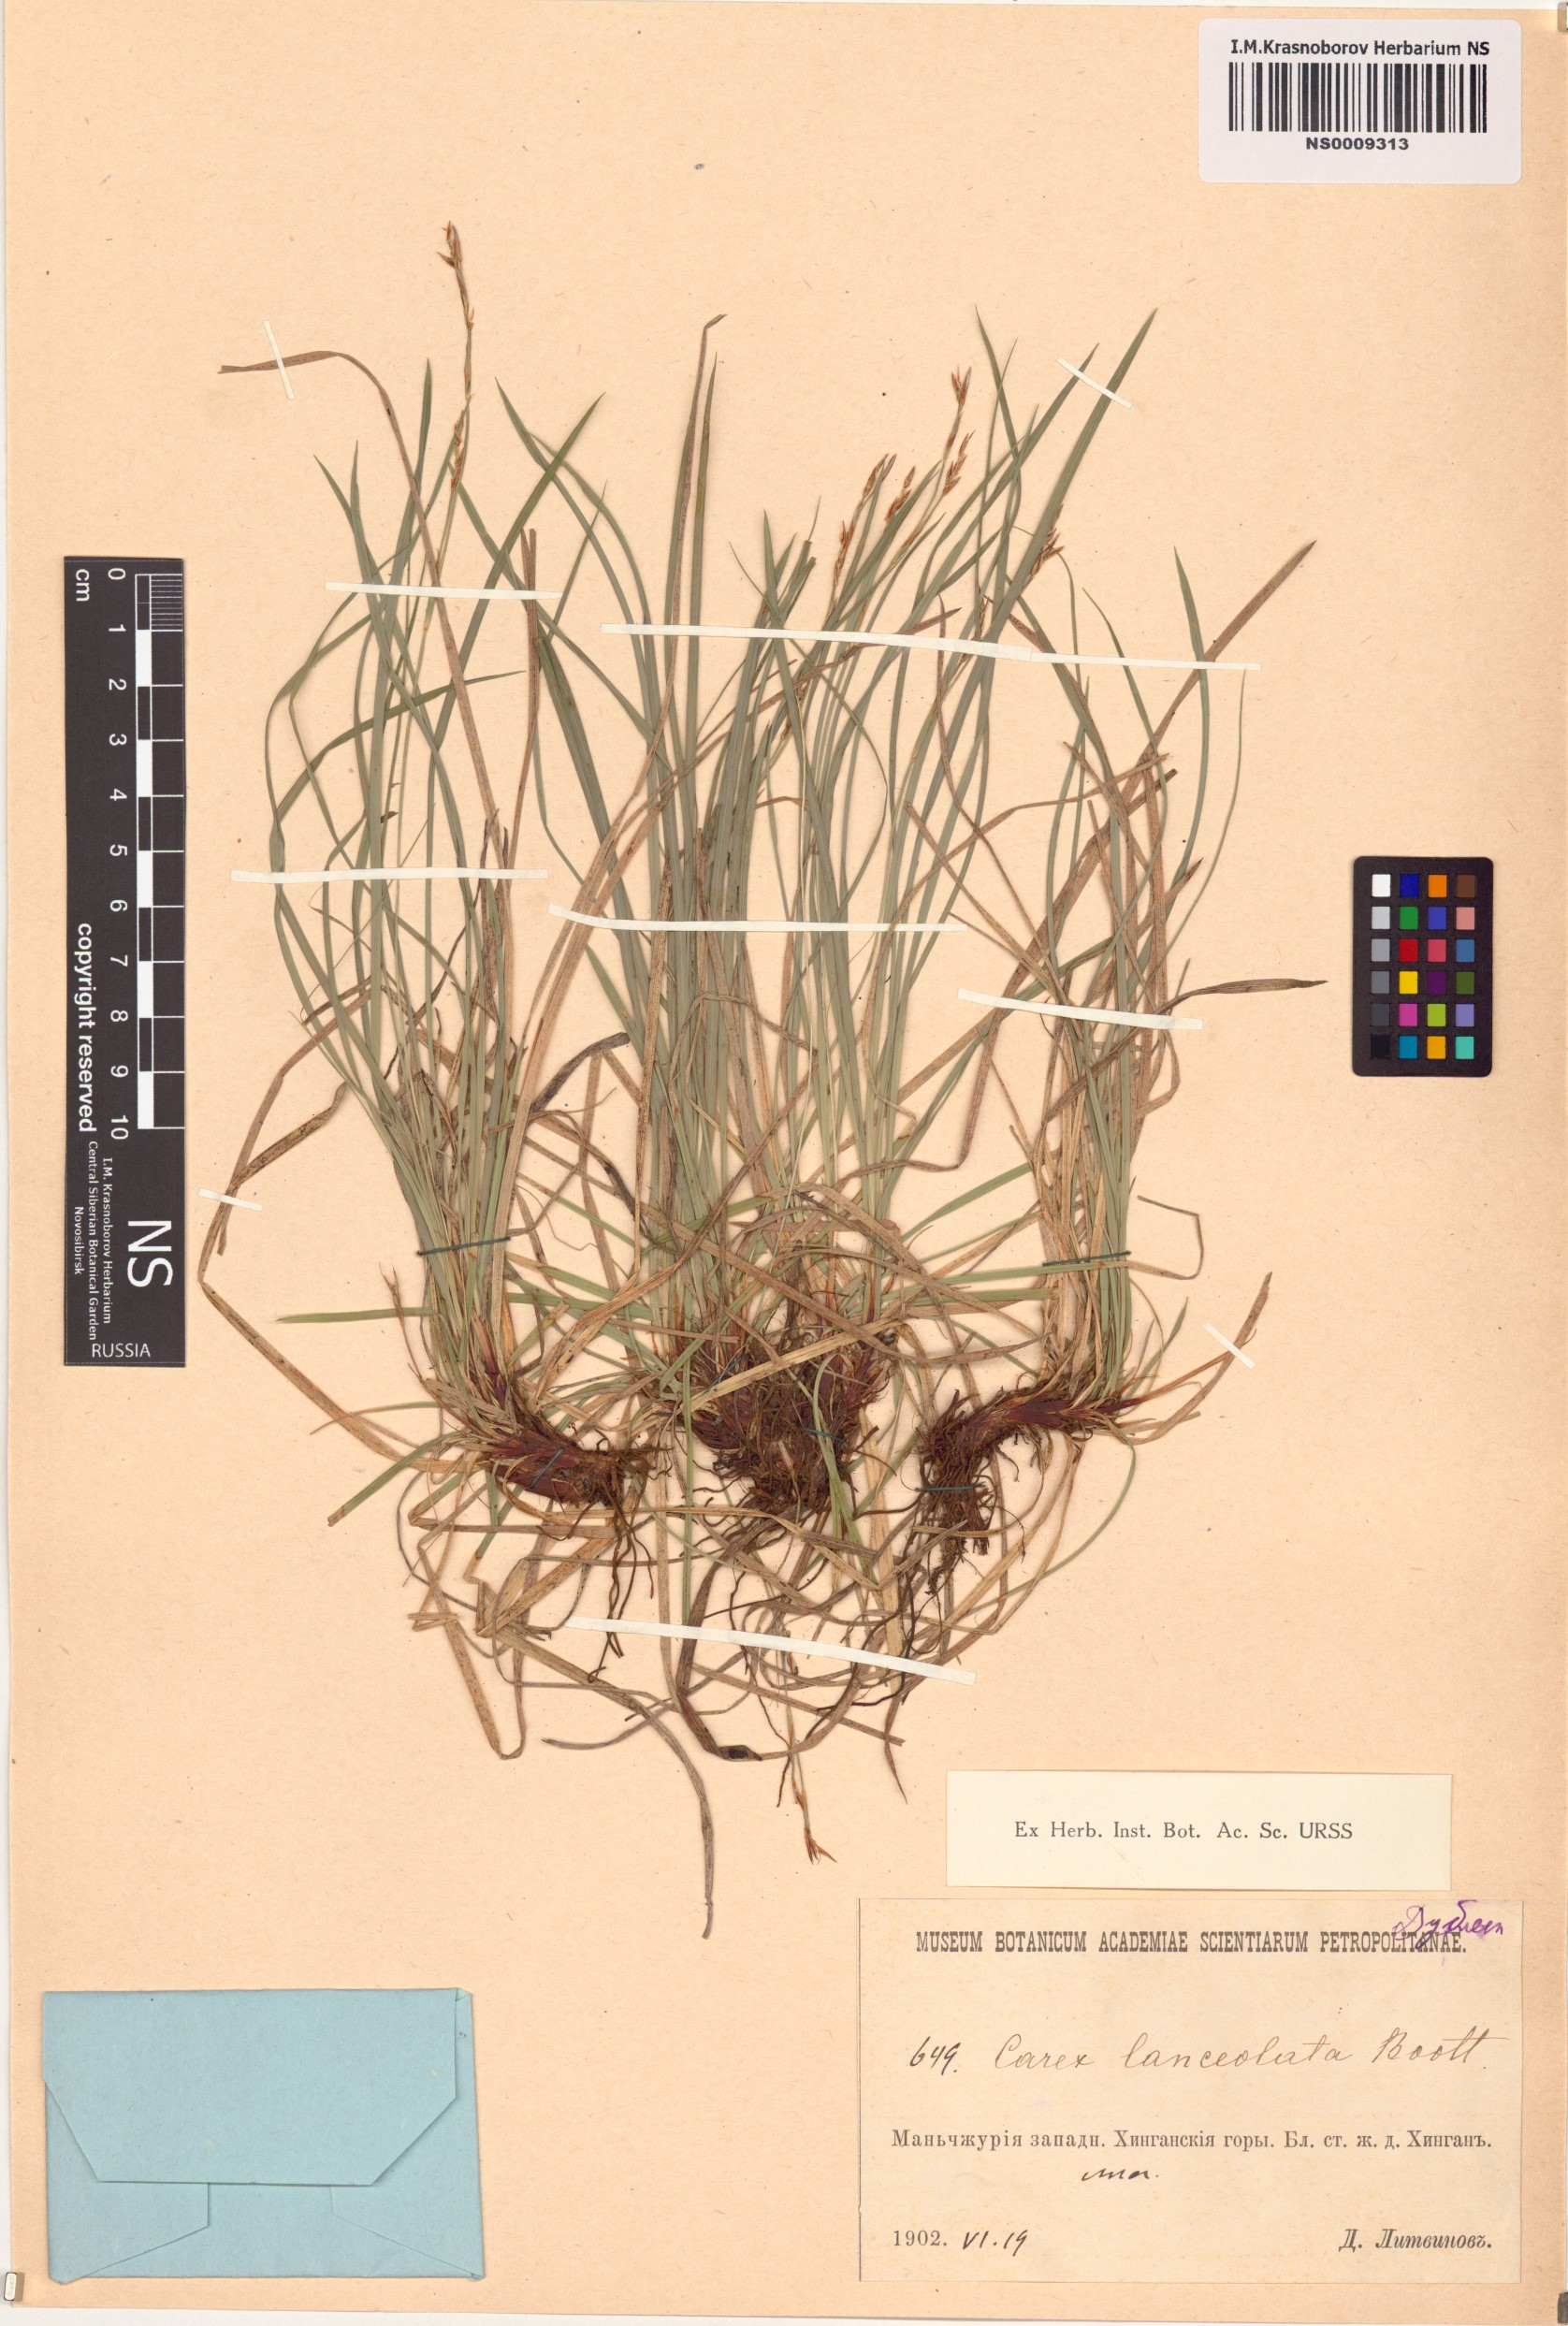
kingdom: Plantae
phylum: Tracheophyta
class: Liliopsida
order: Poales
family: Cyperaceae
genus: Carex
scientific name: Carex lanceolata
